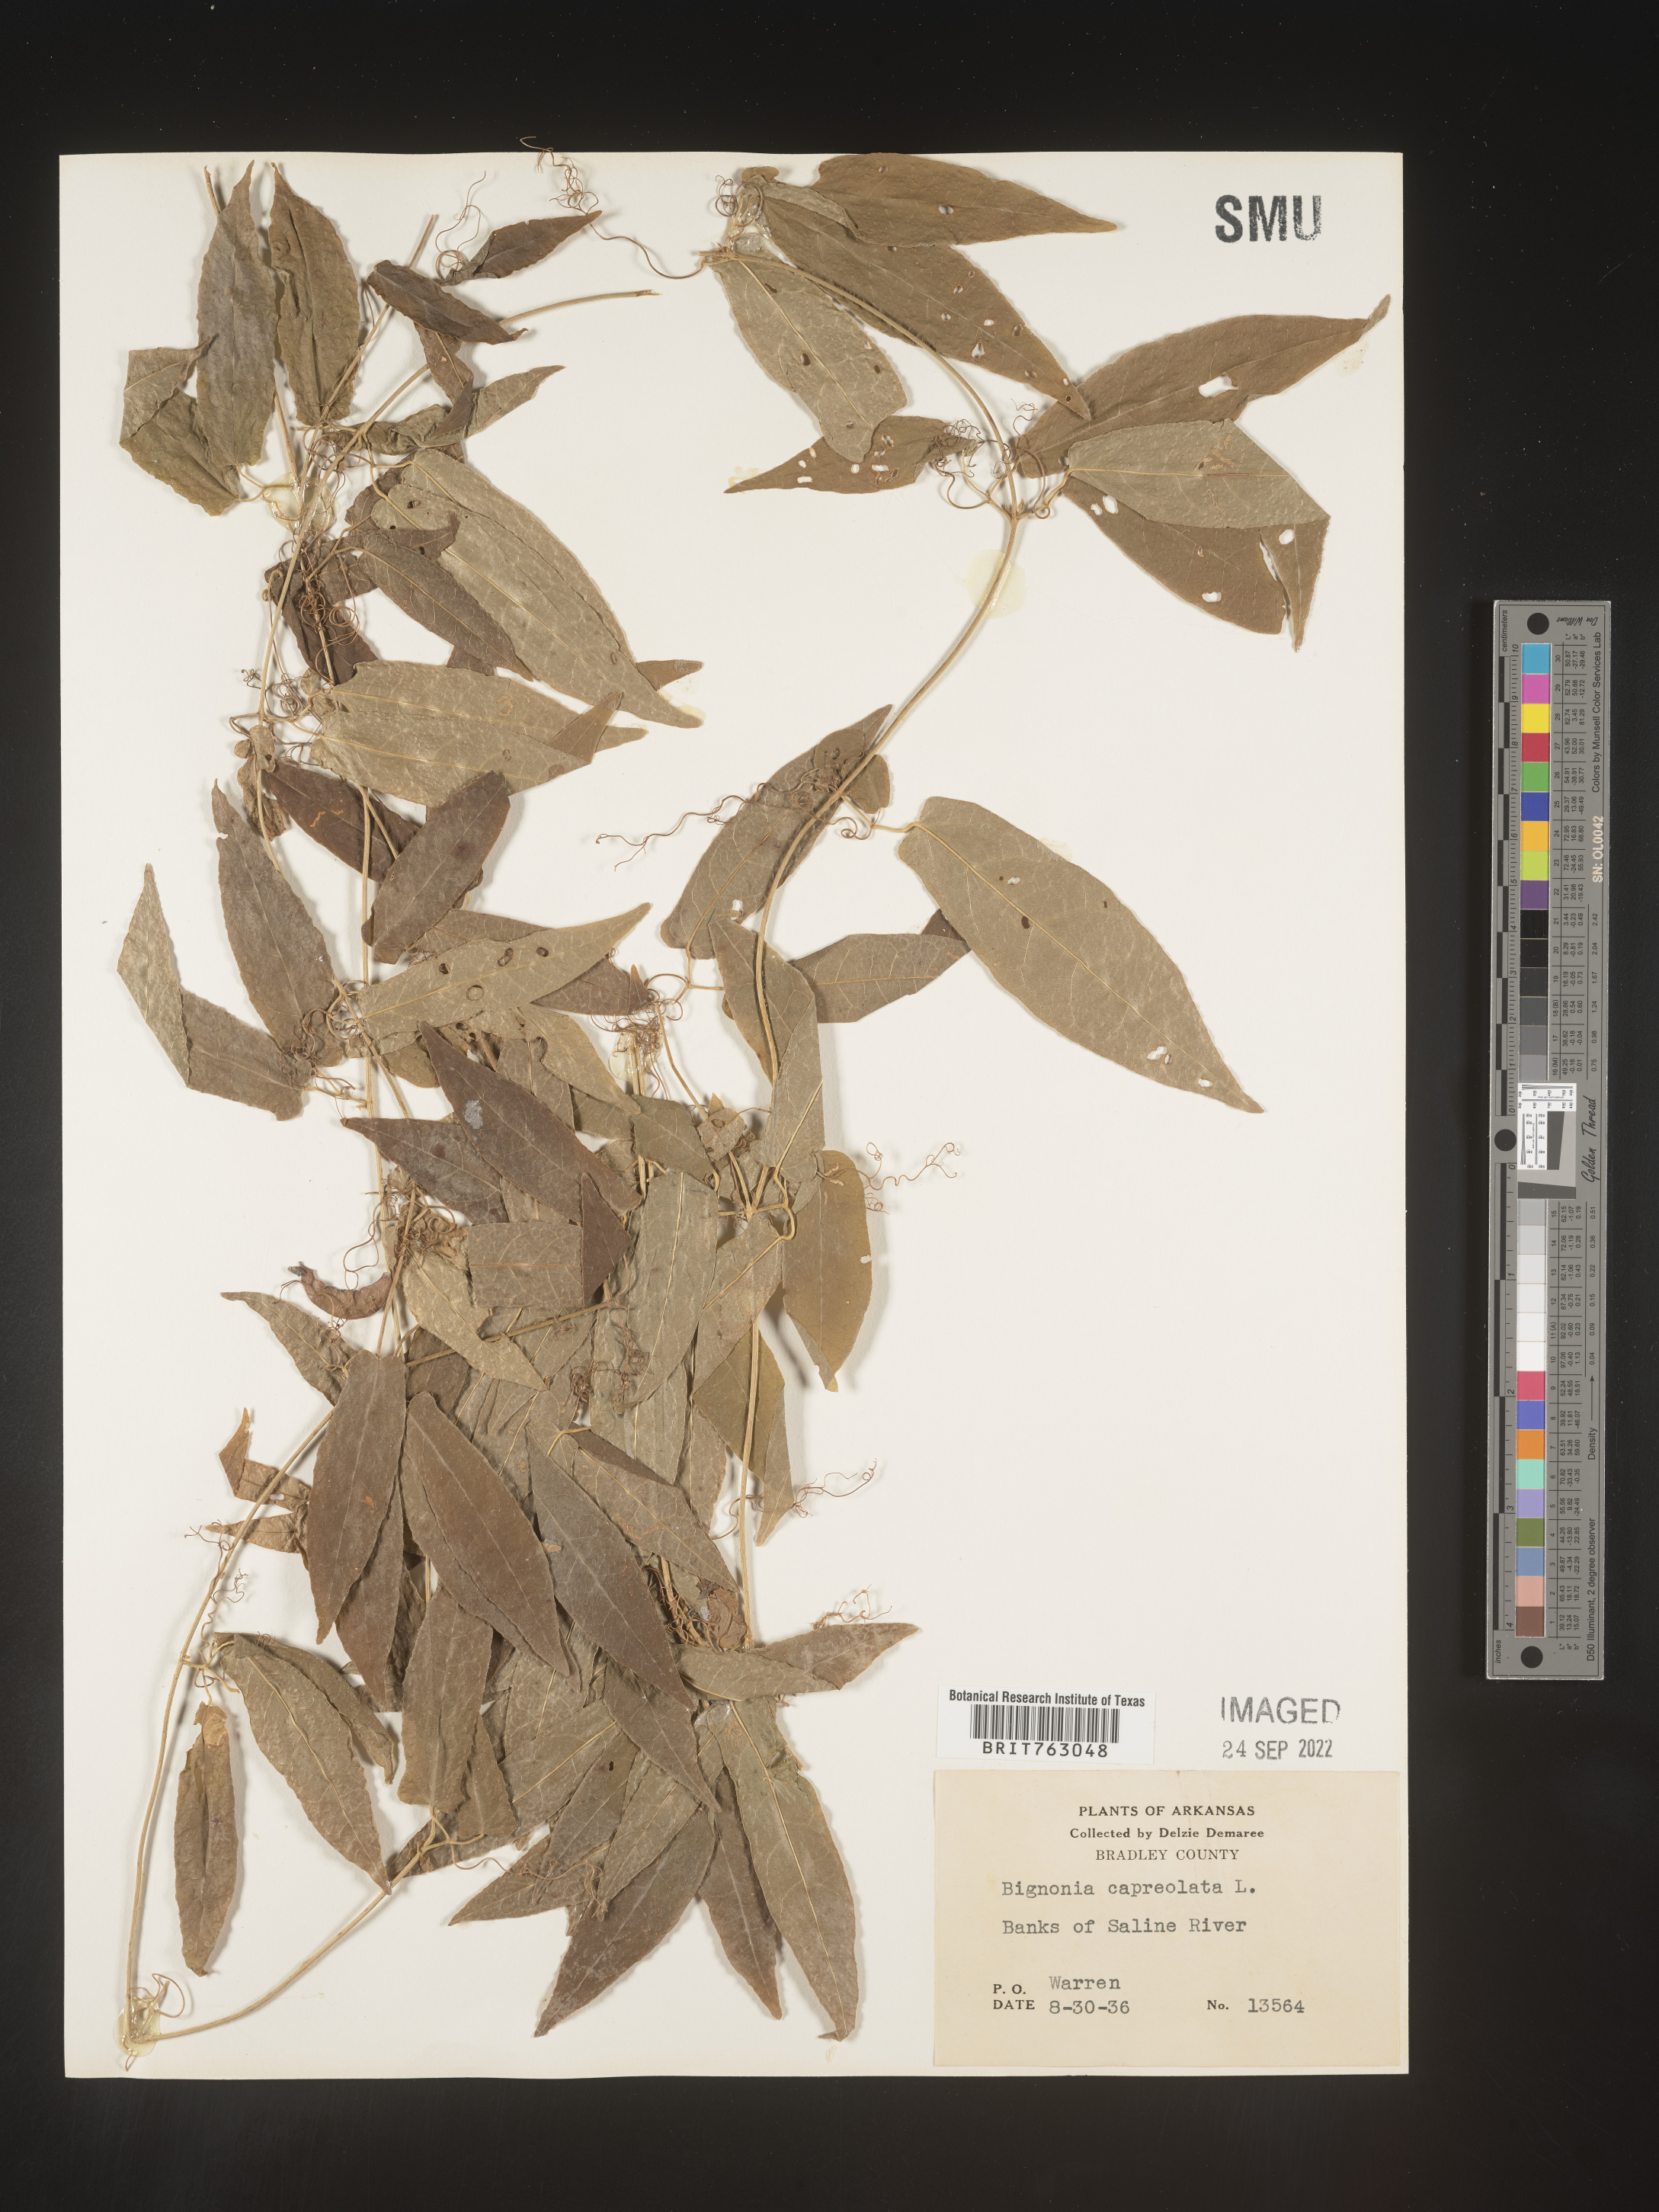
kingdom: Plantae
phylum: Tracheophyta
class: Magnoliopsida
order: Lamiales
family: Bignoniaceae
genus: Bignonia
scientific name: Bignonia capreolata
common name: Crossvine
